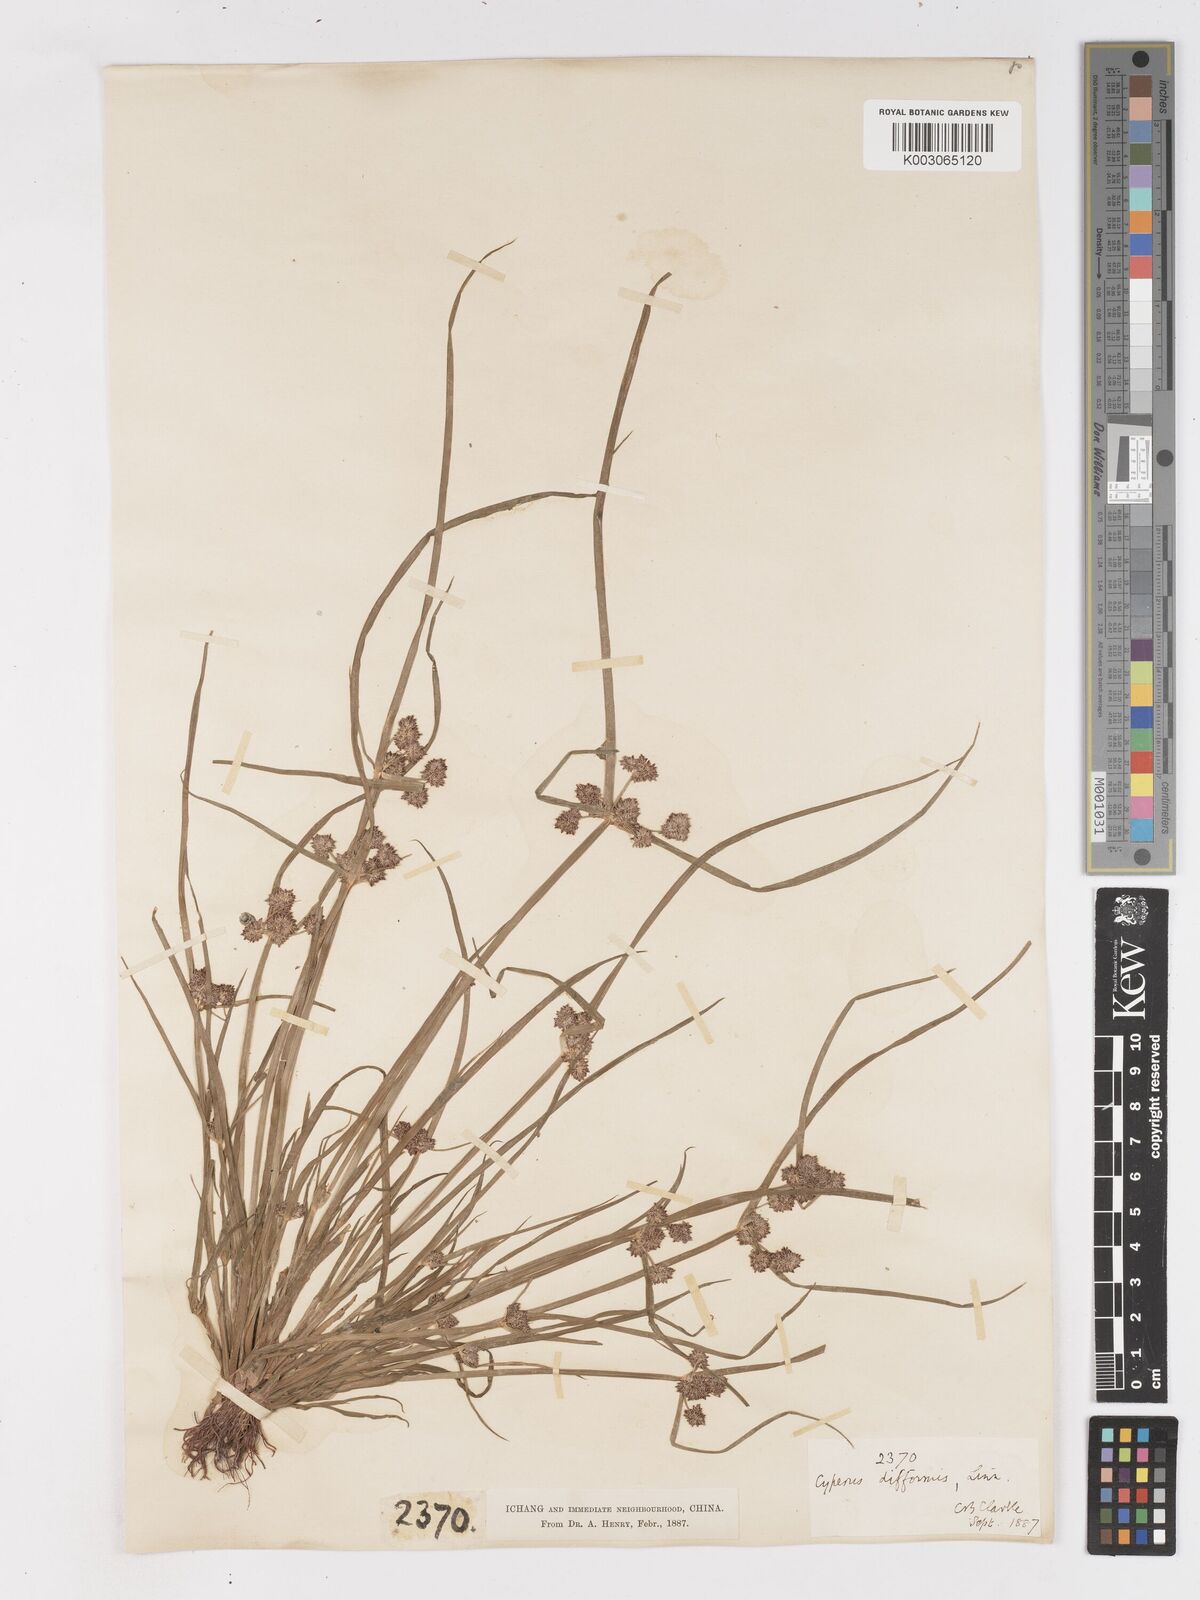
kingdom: Plantae
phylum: Tracheophyta
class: Liliopsida
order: Poales
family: Cyperaceae
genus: Cyperus
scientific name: Cyperus difformis
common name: Variable flatsedge
